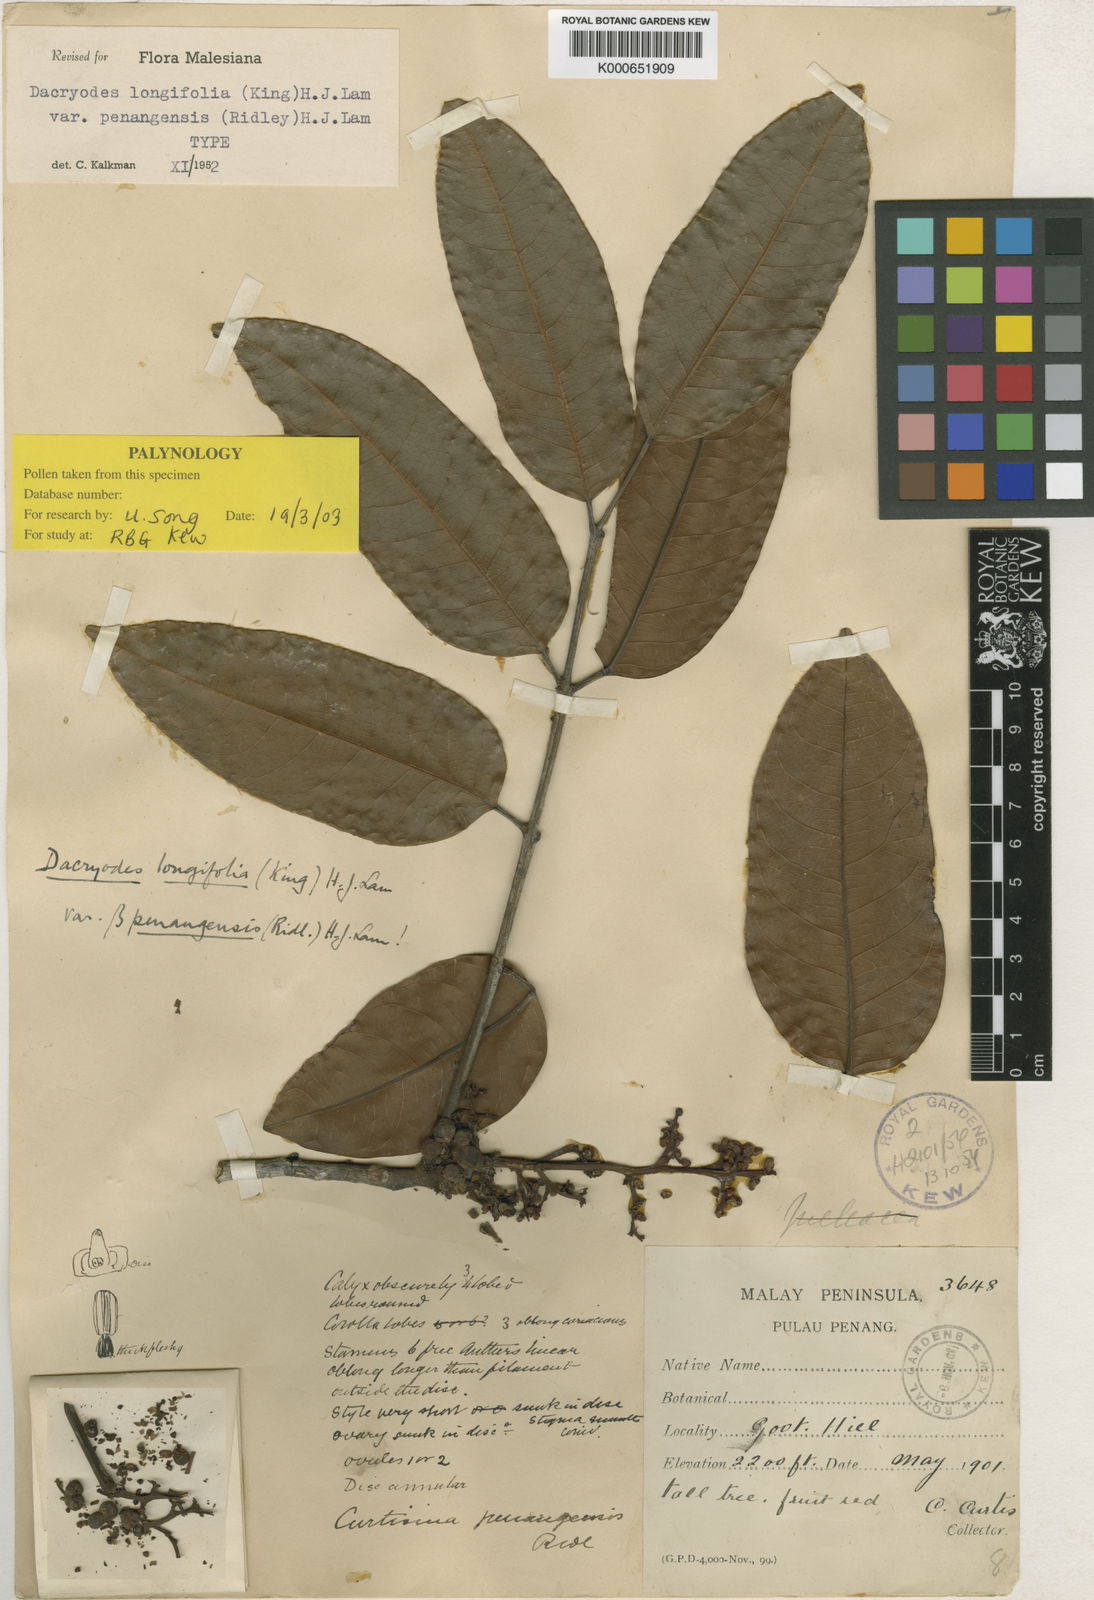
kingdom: Plantae
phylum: Tracheophyta
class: Magnoliopsida
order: Sapindales
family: Burseraceae
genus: Dacryodes
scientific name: Dacryodes longifolia
